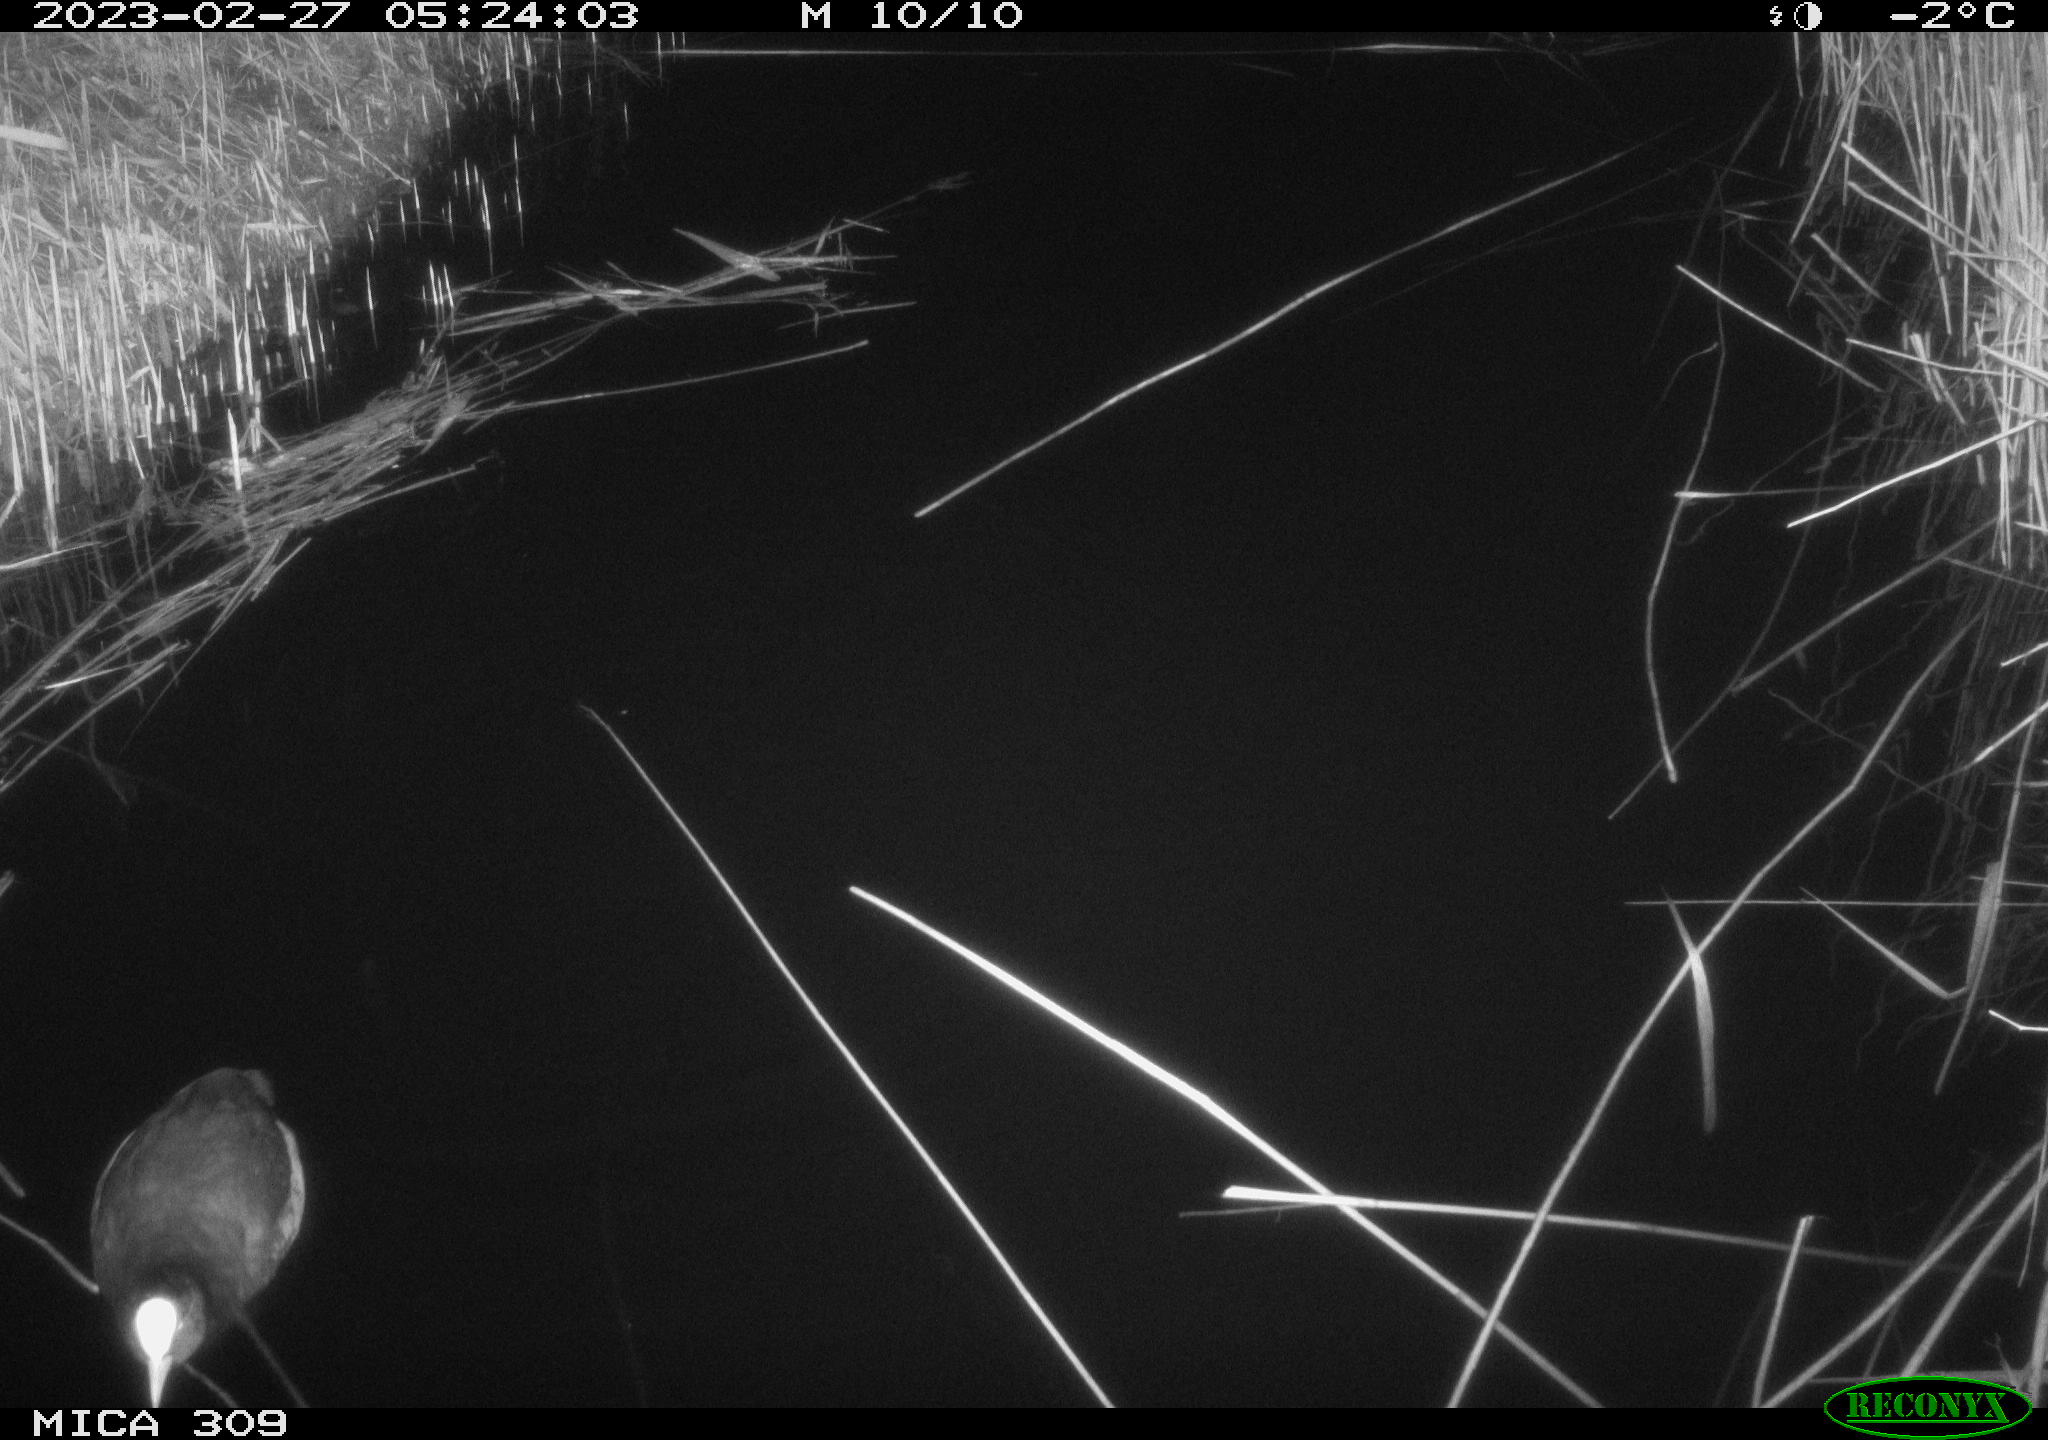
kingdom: Animalia
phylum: Chordata
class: Aves
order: Anseriformes
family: Anatidae
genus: Anas
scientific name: Anas
